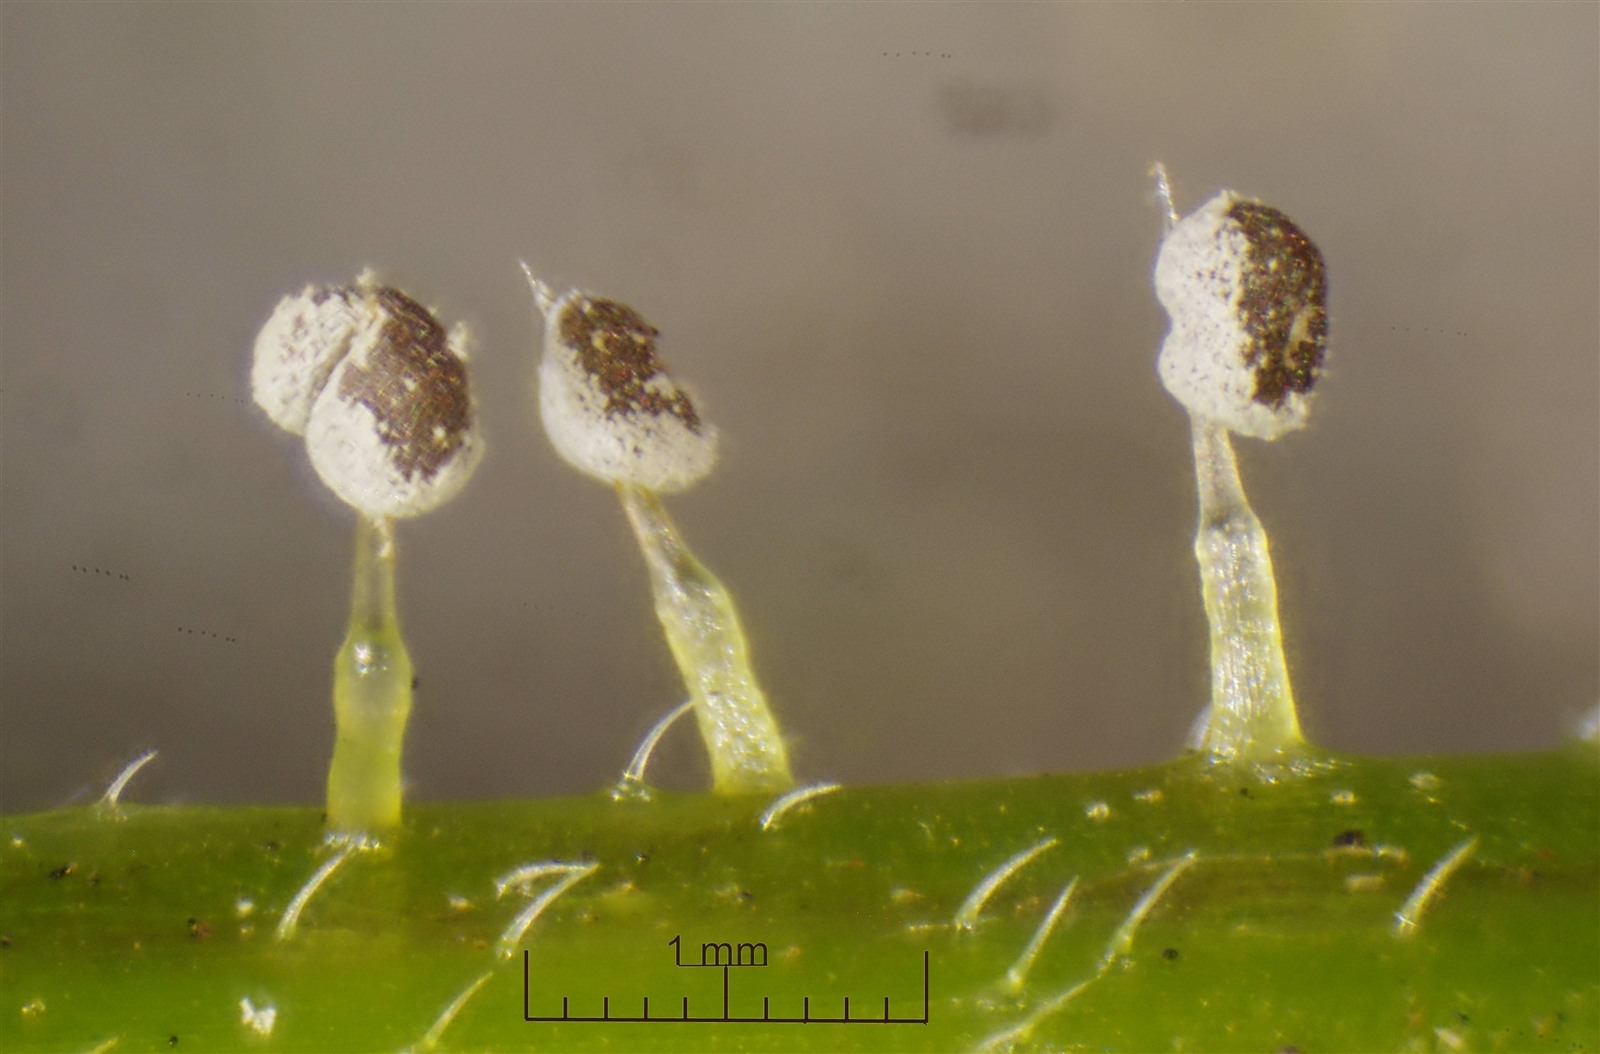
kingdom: Protozoa
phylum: Mycetozoa
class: Myxomycetes
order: Physarales
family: Didymiaceae
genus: Didymium
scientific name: Didymium anellus
